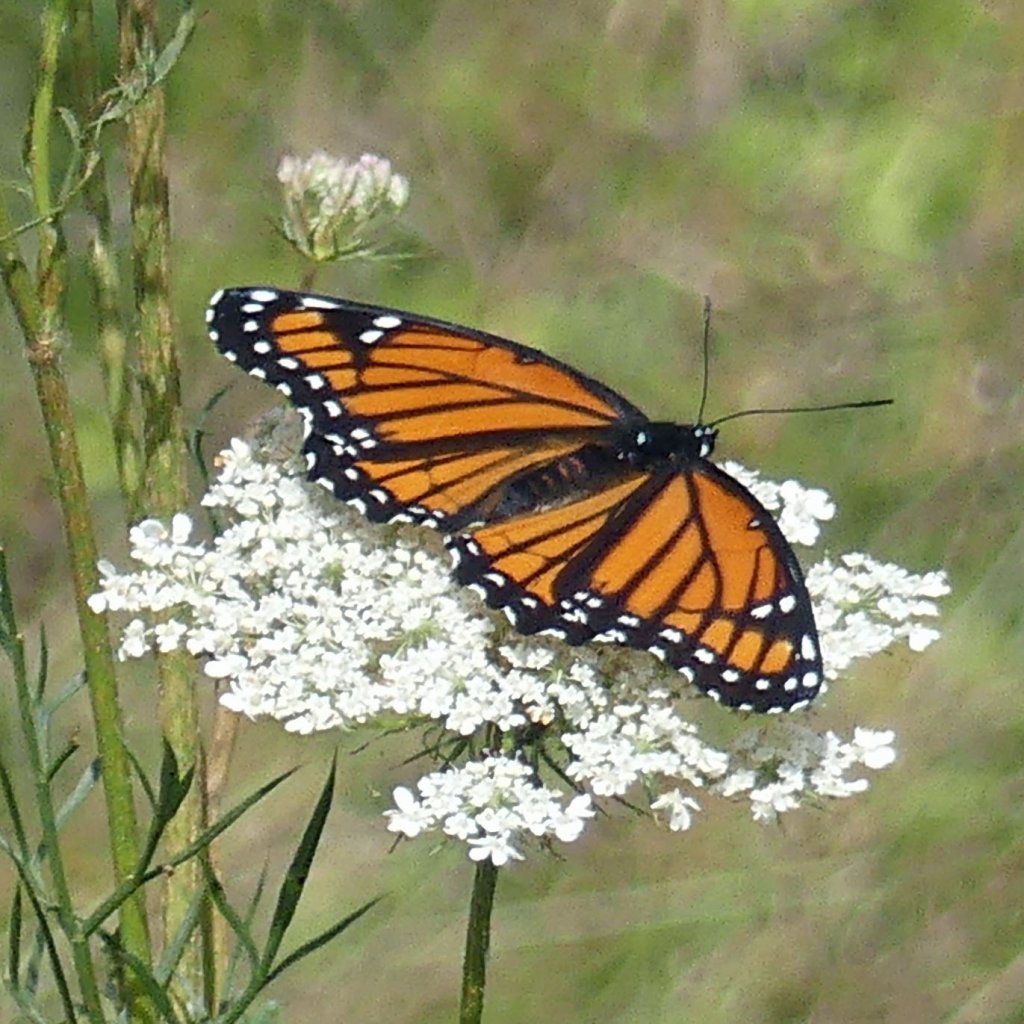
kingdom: Animalia
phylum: Arthropoda
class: Insecta
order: Lepidoptera
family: Nymphalidae
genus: Limenitis
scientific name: Limenitis archippus
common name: Viceroy
